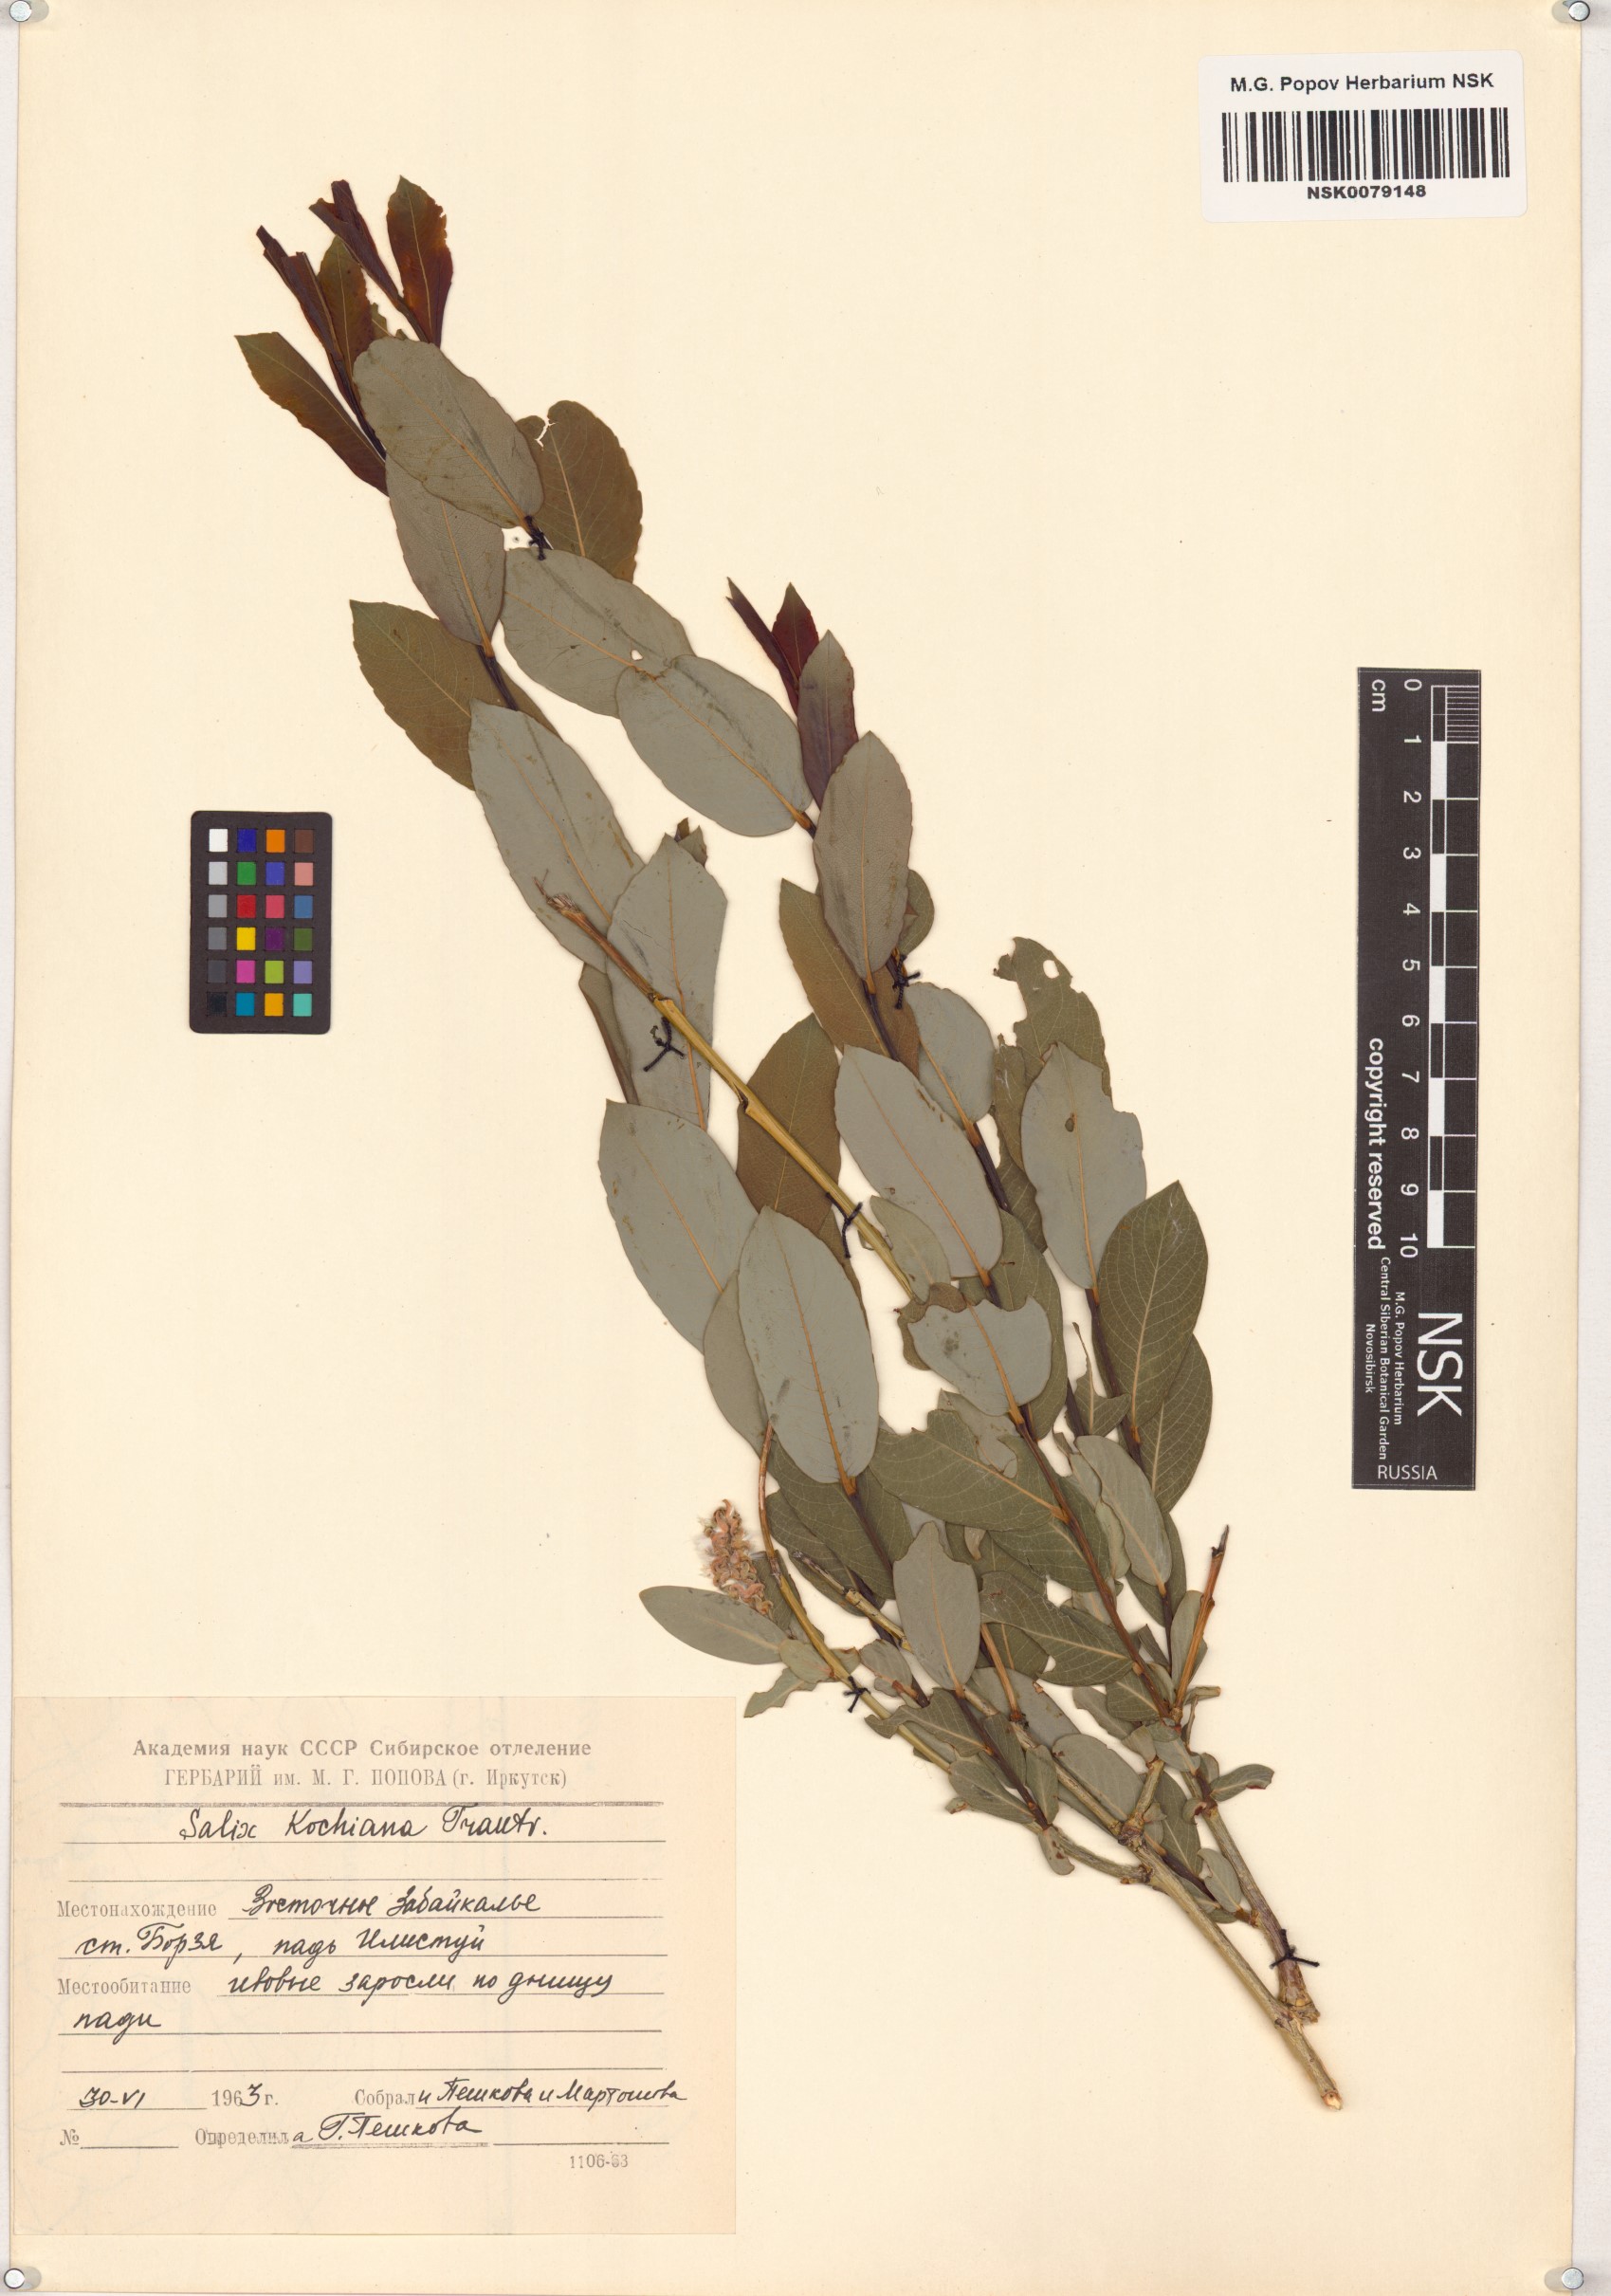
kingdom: Plantae
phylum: Tracheophyta
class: Magnoliopsida
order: Malpighiales
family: Salicaceae
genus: Salix
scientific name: Salix kochiana
